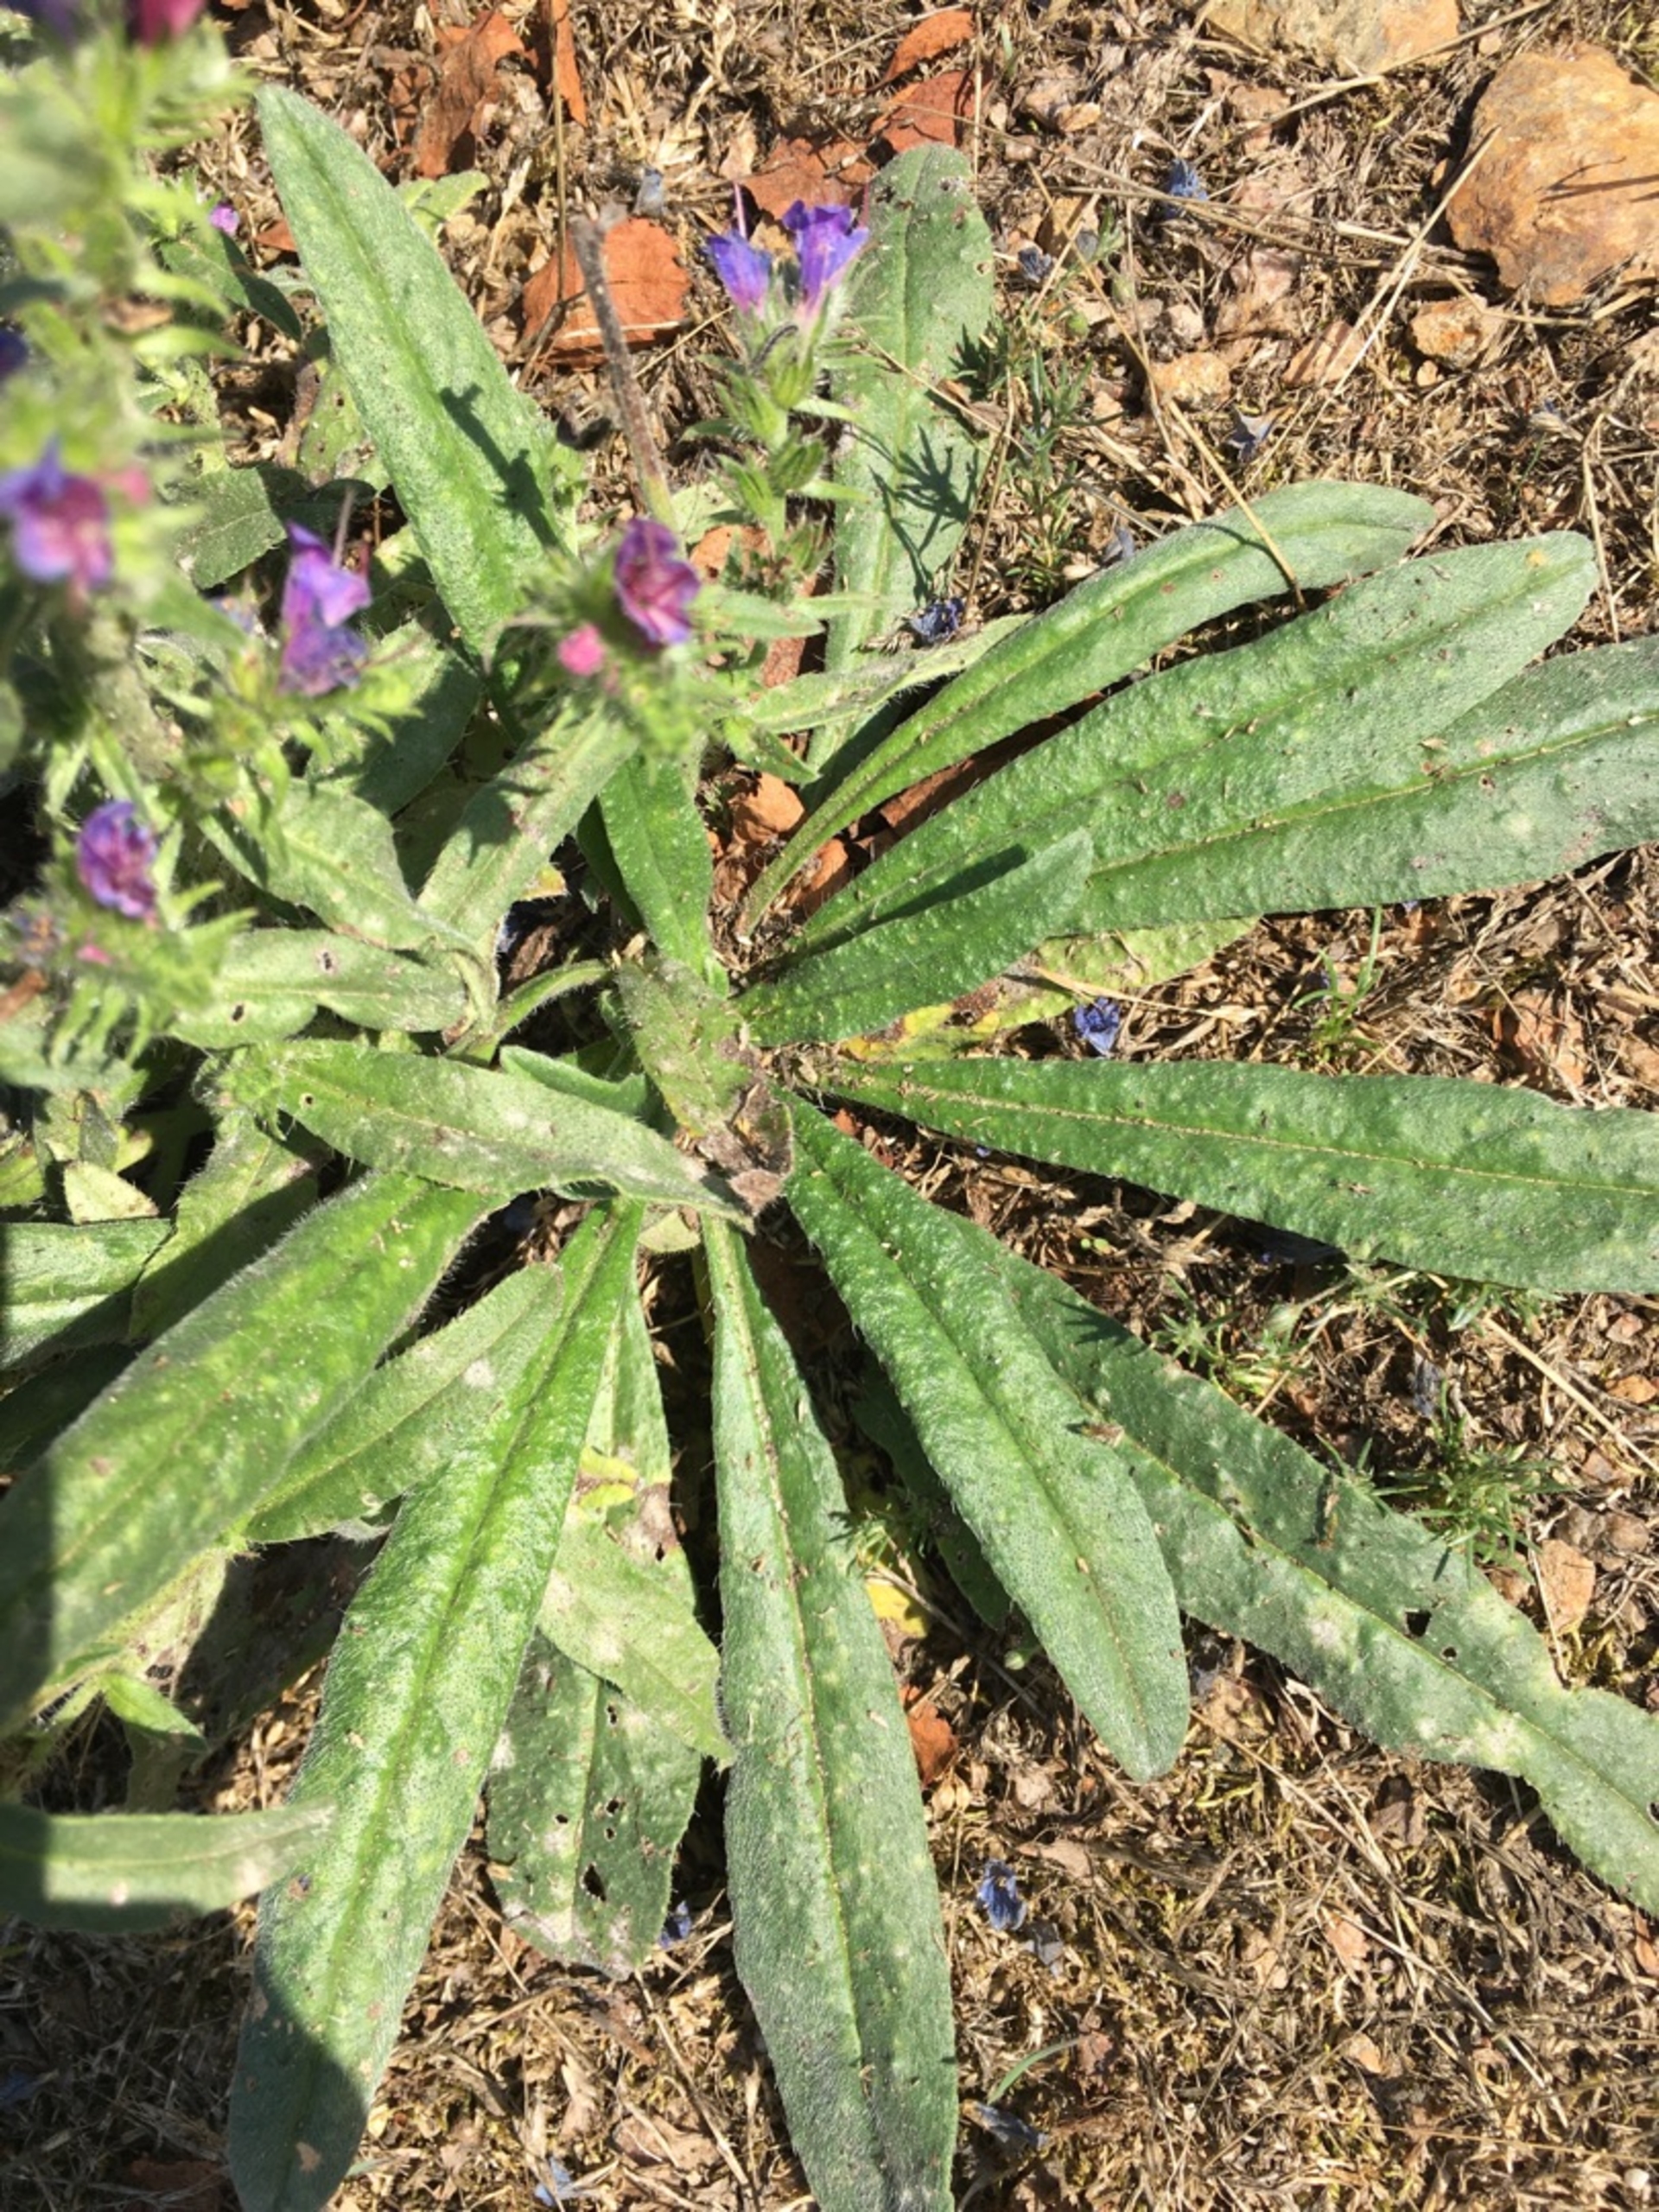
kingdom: Plantae
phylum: Tracheophyta
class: Magnoliopsida
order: Boraginales
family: Boraginaceae
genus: Echium
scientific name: Echium vulgare
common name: Slangehoved
